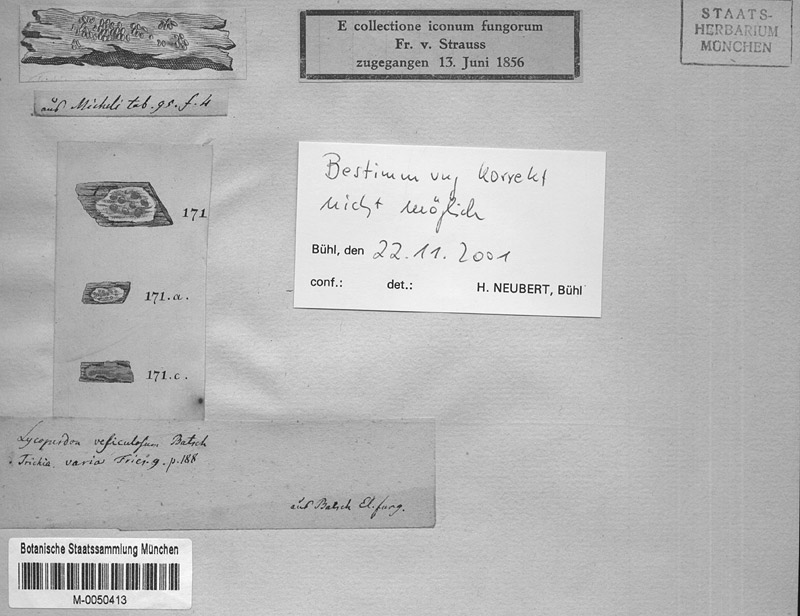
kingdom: Protozoa
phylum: Mycetozoa
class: Myxomycetes
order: Trichiales
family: Trichiaceae
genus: Trichia
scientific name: Trichia varia
